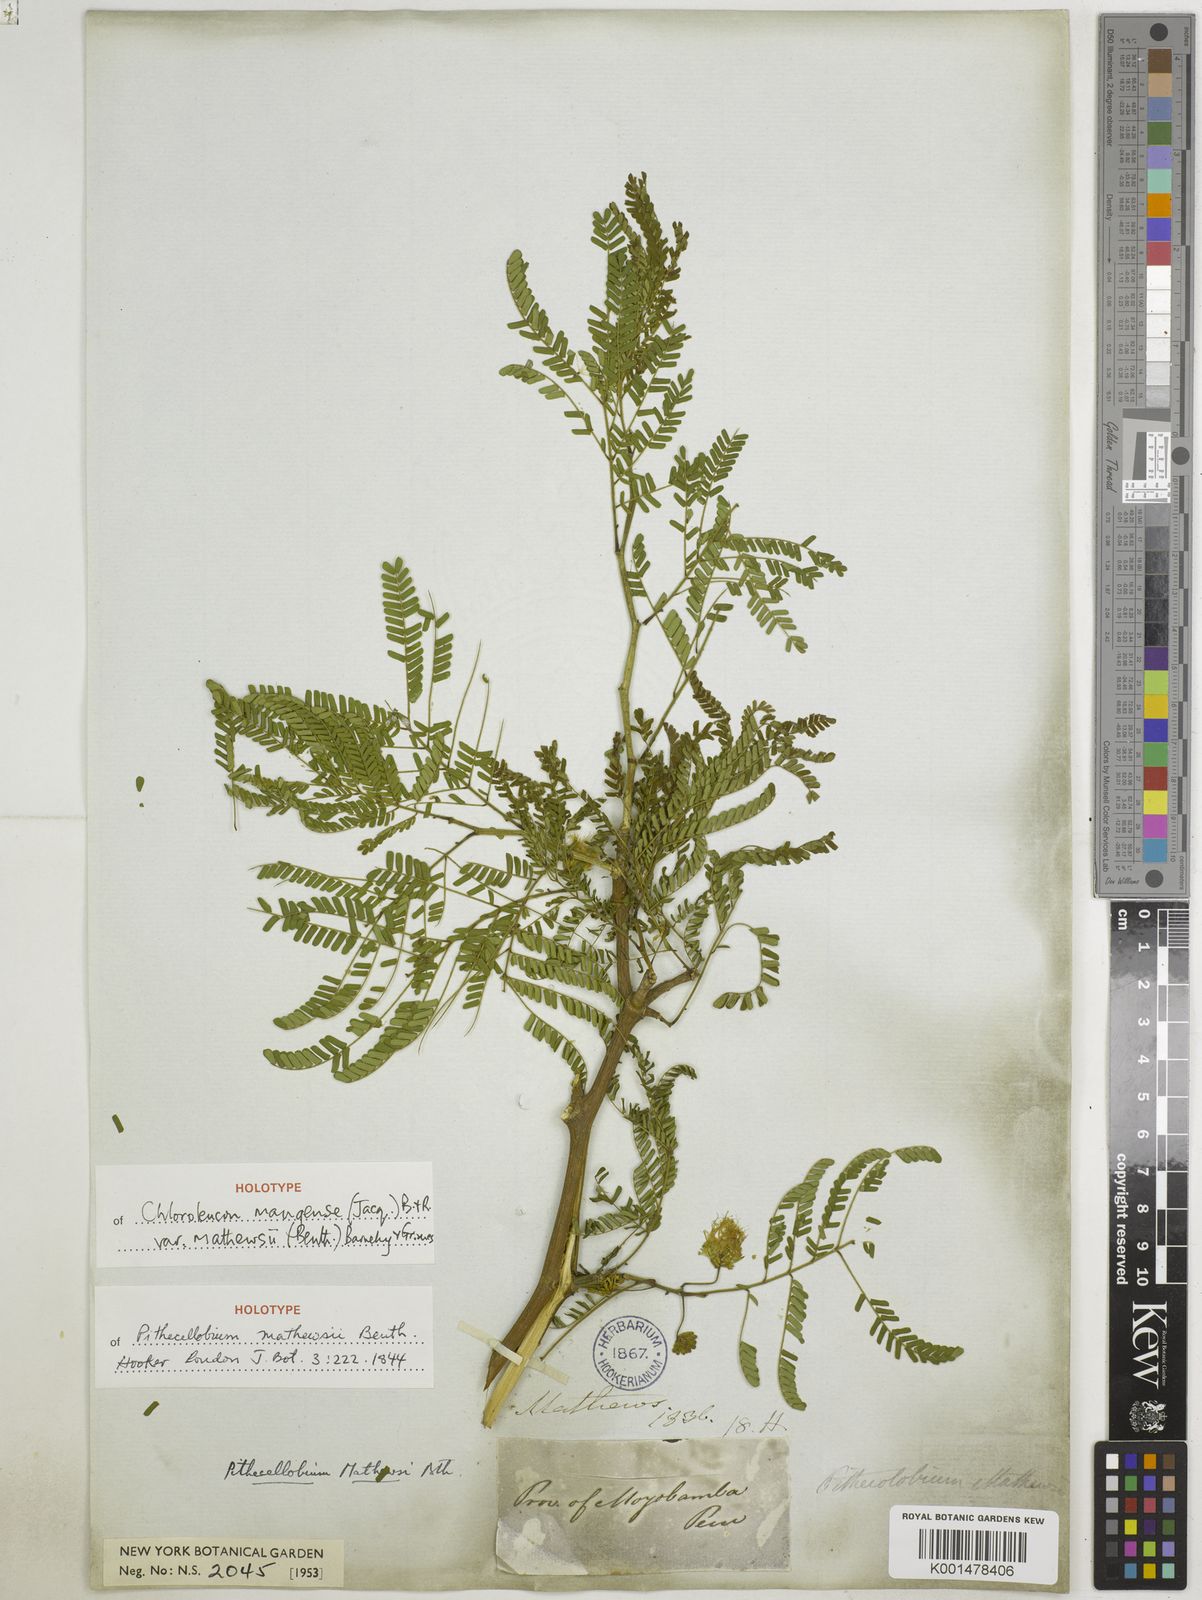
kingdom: Plantae
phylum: Tracheophyta
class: Magnoliopsida
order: Fabales
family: Fabaceae
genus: Chloroleucon
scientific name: Chloroleucon mangense
